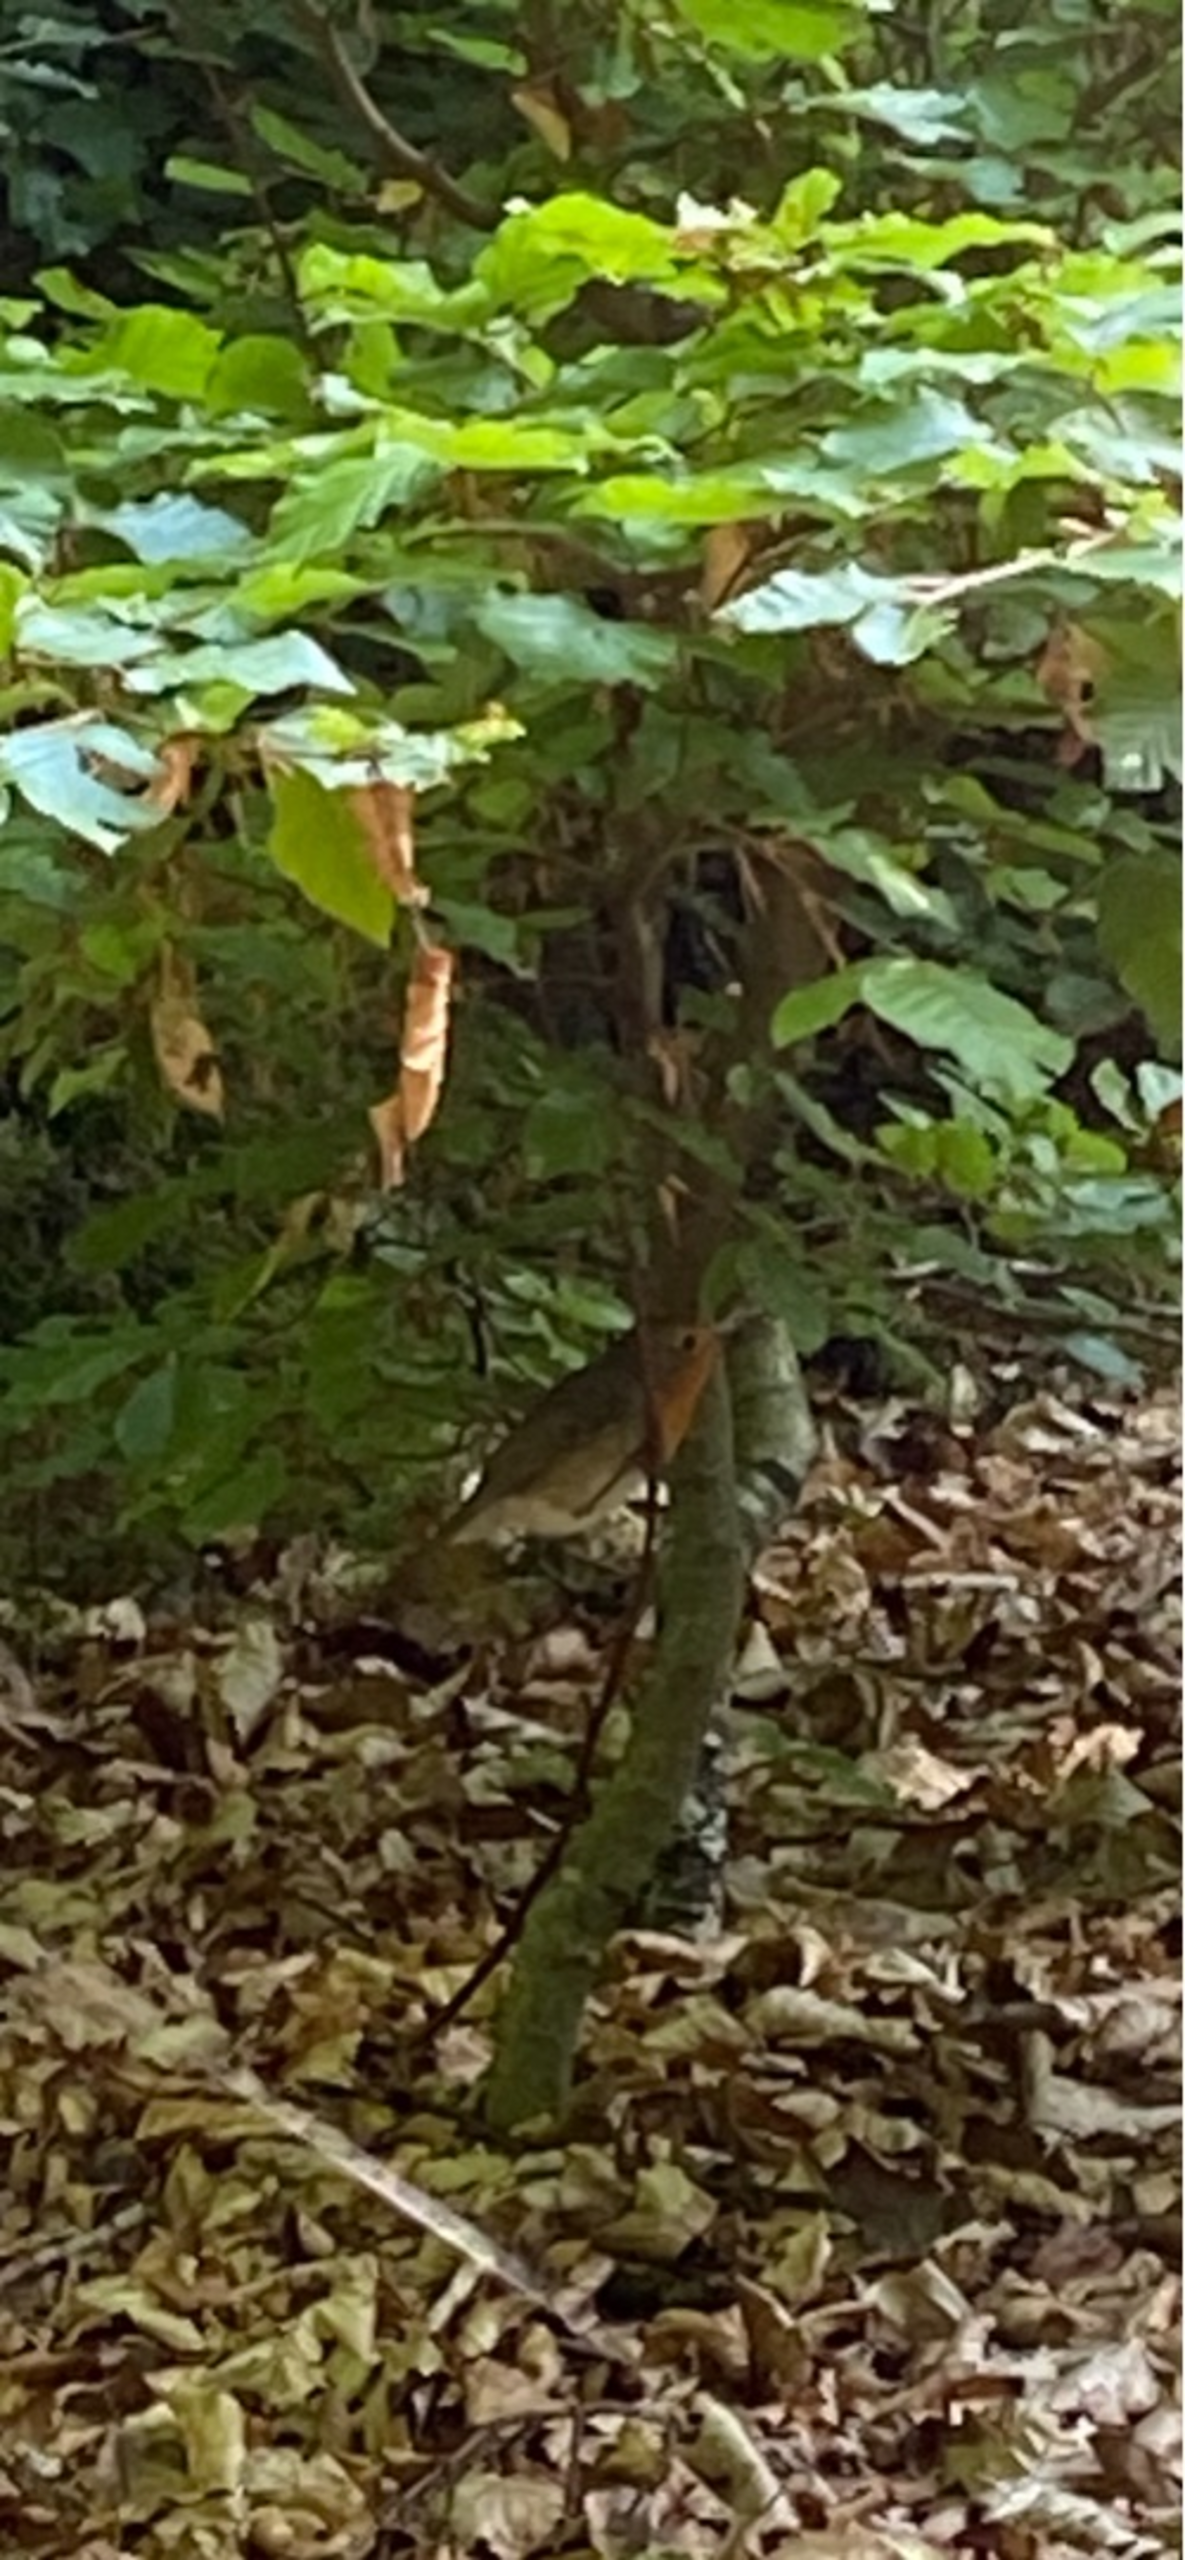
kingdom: Animalia
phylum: Chordata
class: Aves
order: Passeriformes
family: Muscicapidae
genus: Erithacus
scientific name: Erithacus rubecula
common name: Rødhals/rødkælk
